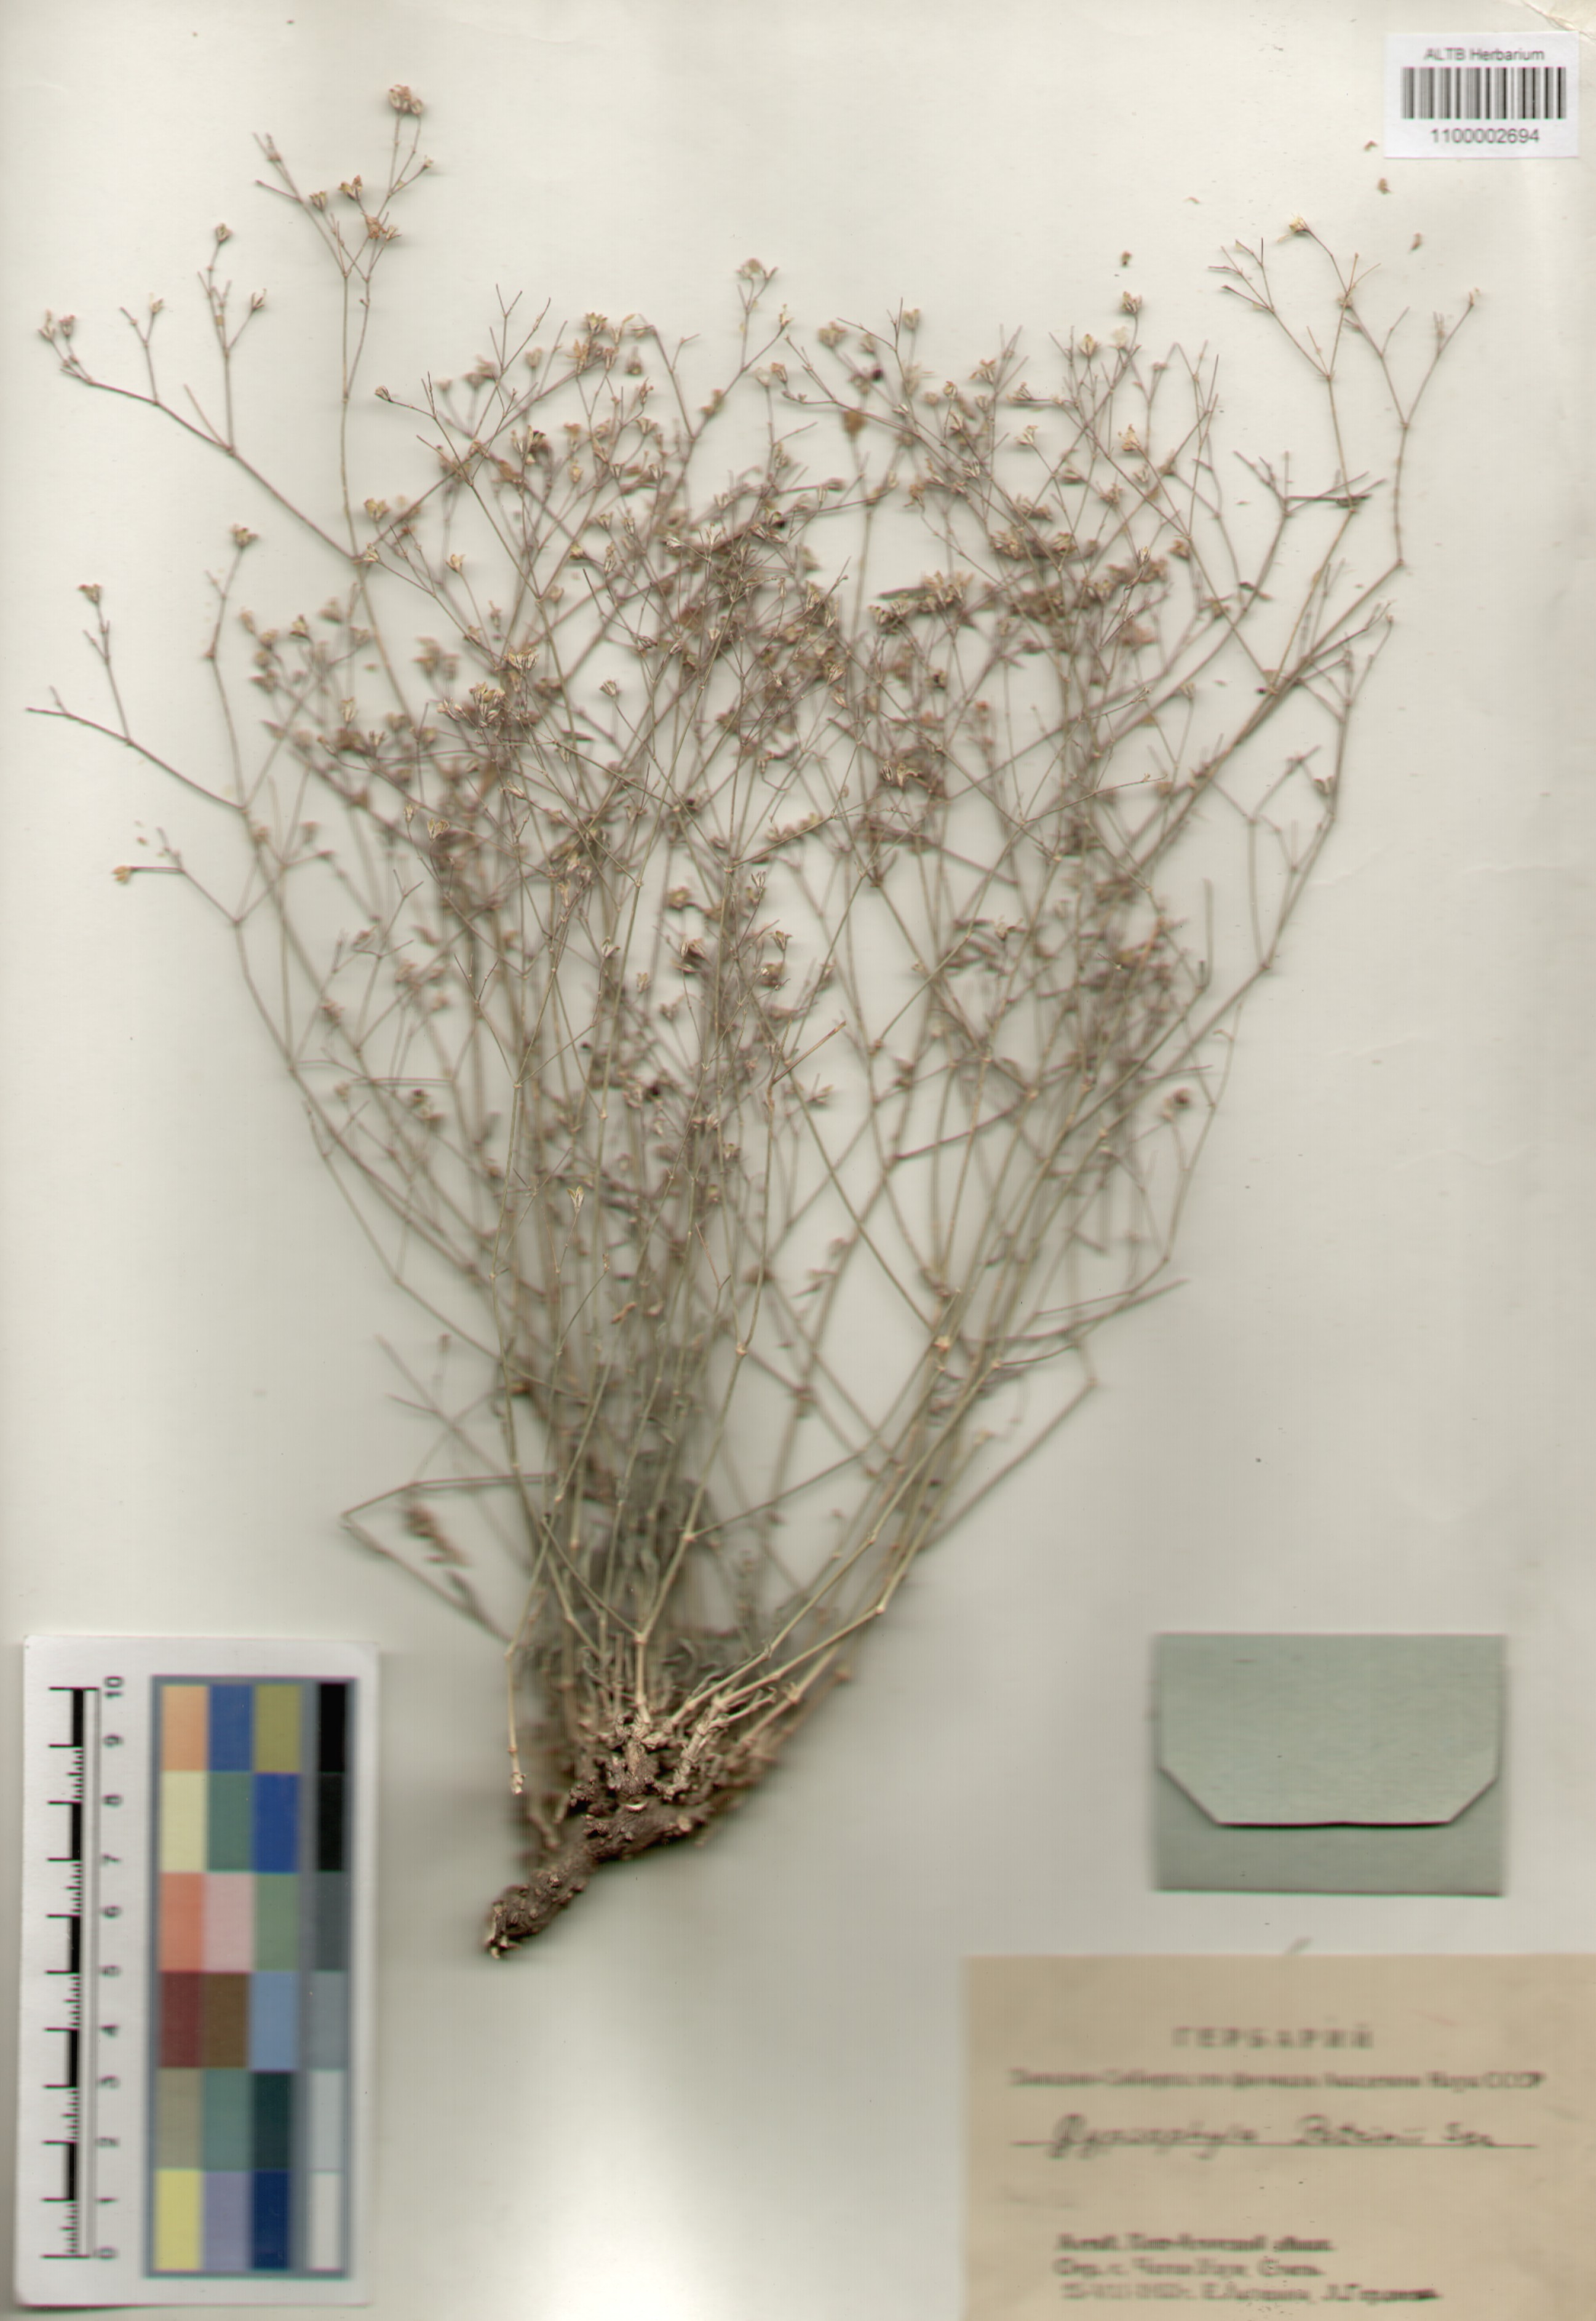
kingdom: Plantae
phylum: Tracheophyta
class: Magnoliopsida
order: Caryophyllales
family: Caryophyllaceae
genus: Gypsophila
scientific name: Gypsophila patrinii
